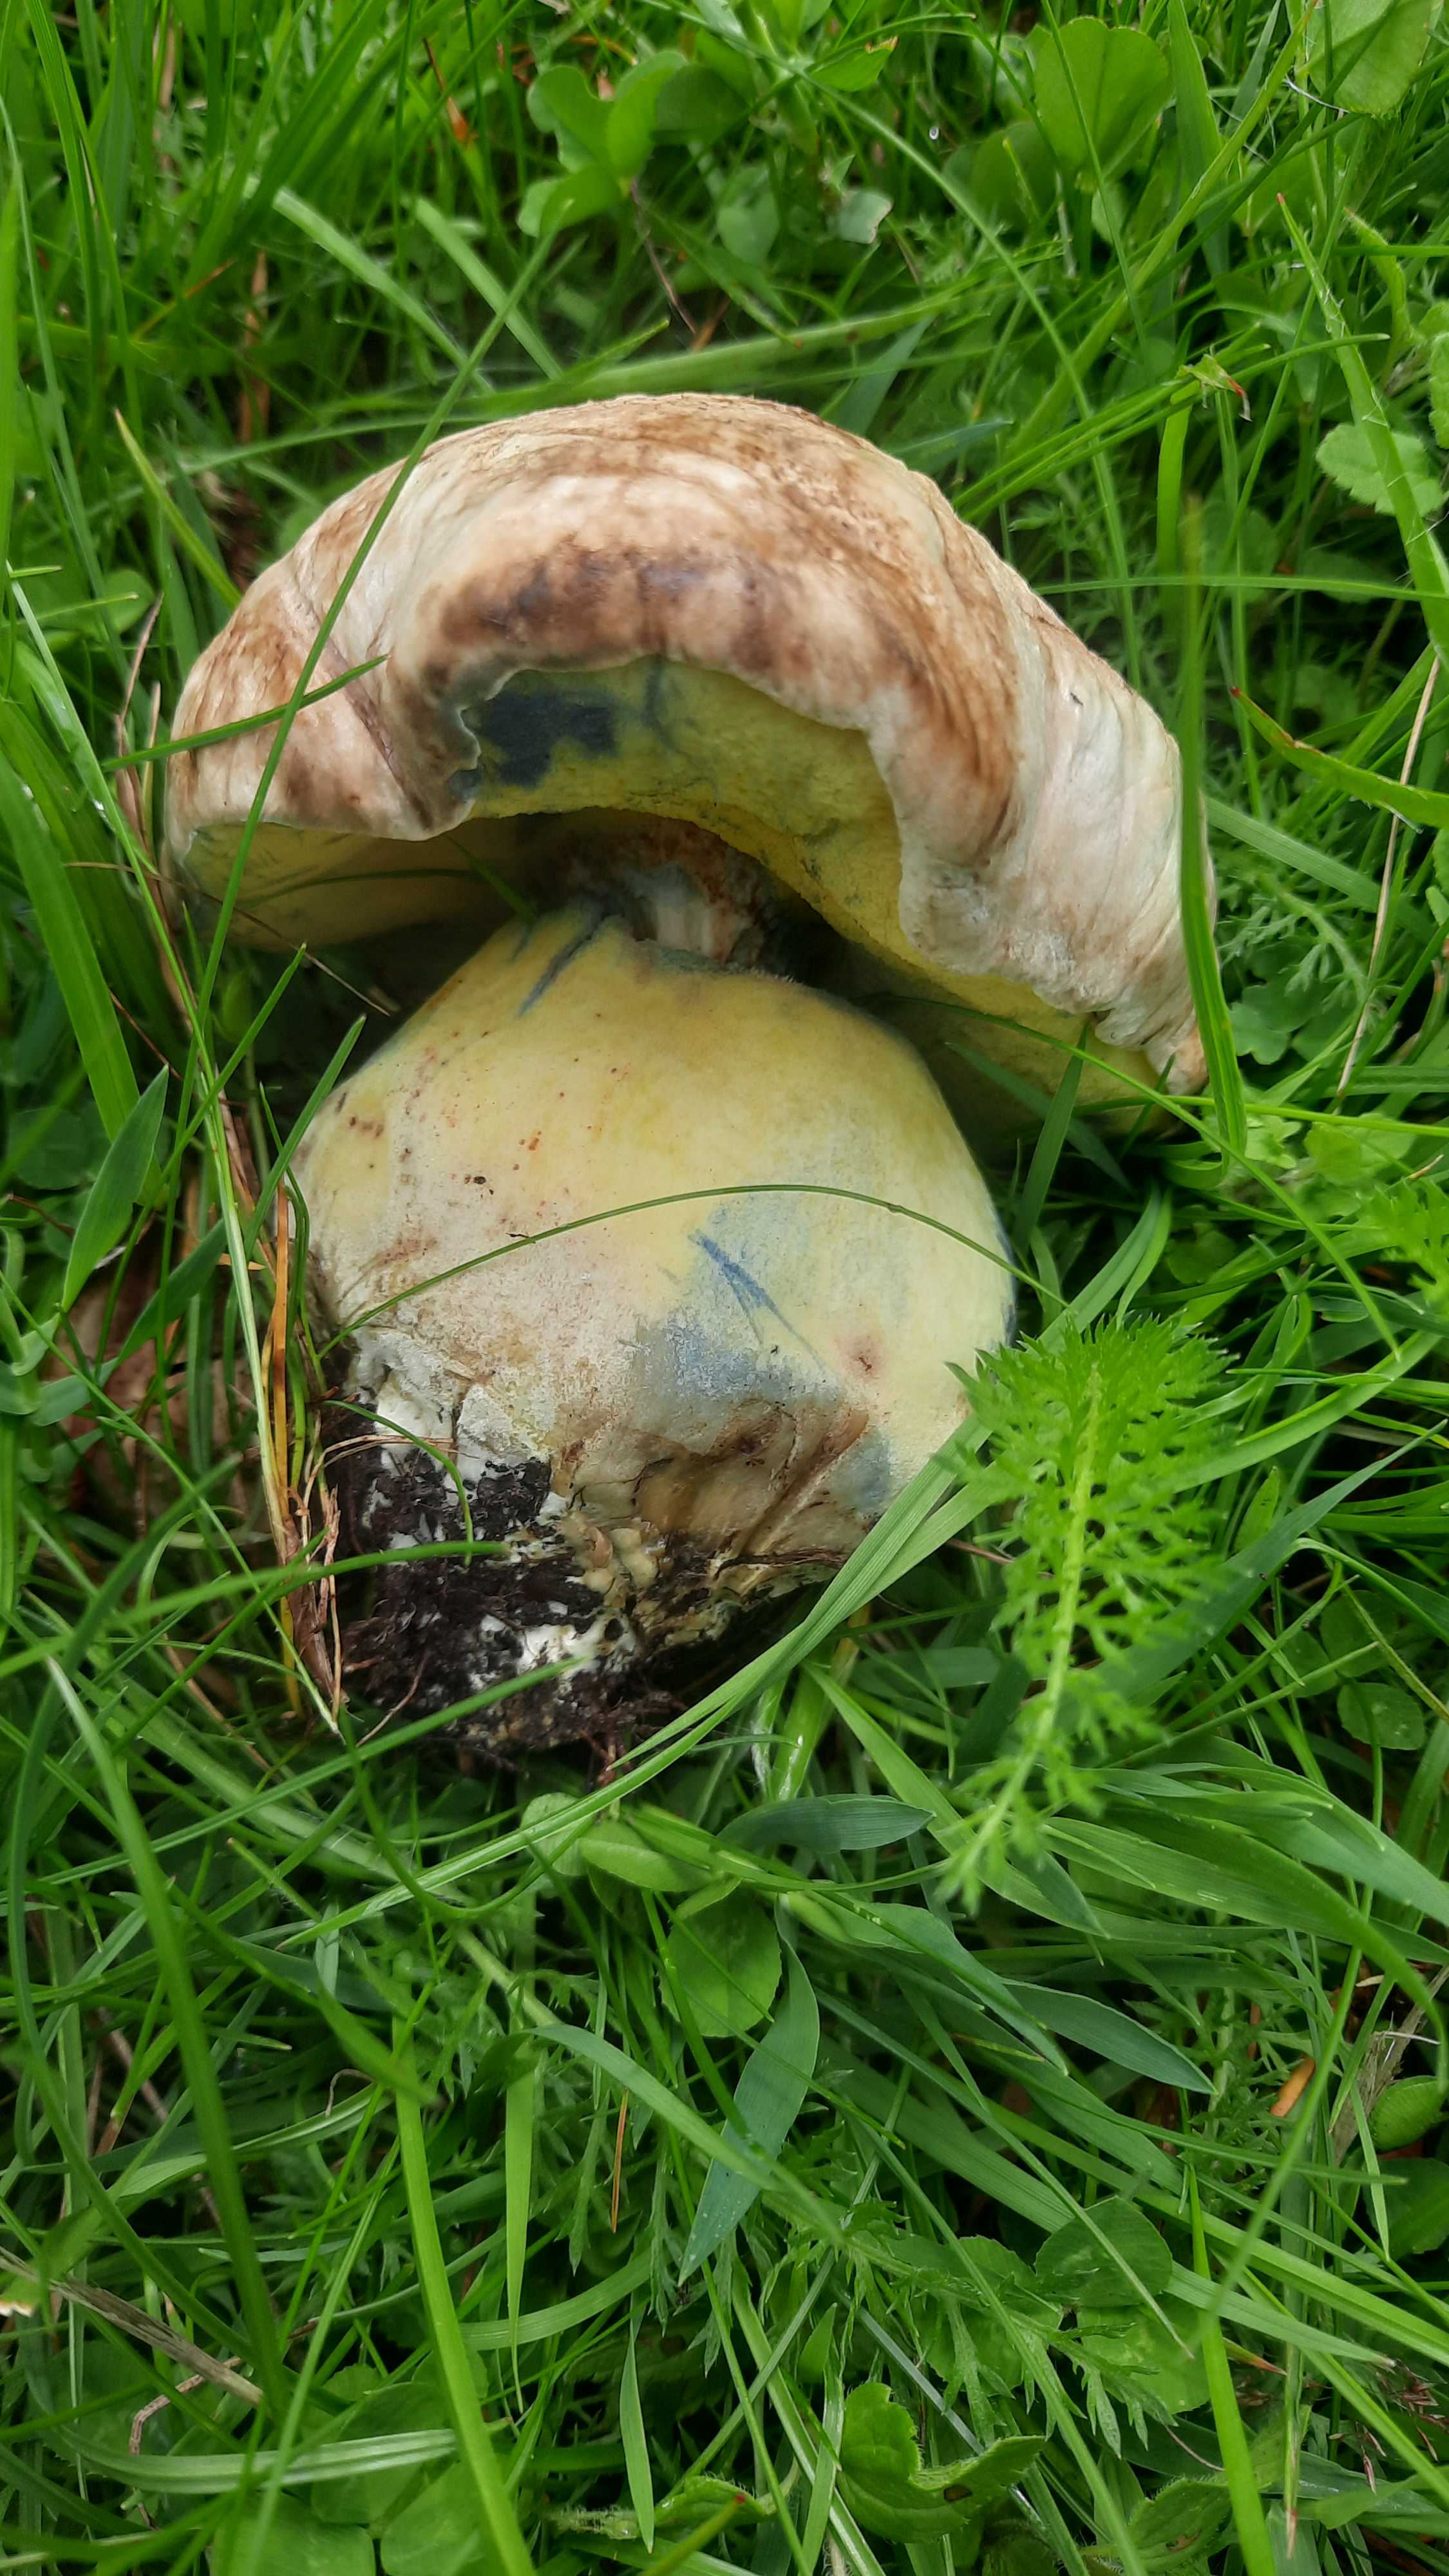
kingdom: Fungi
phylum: Basidiomycota
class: Agaricomycetes
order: Boletales
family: Boletaceae
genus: Caloboletus
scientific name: Caloboletus radicans
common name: rod-rørhat
